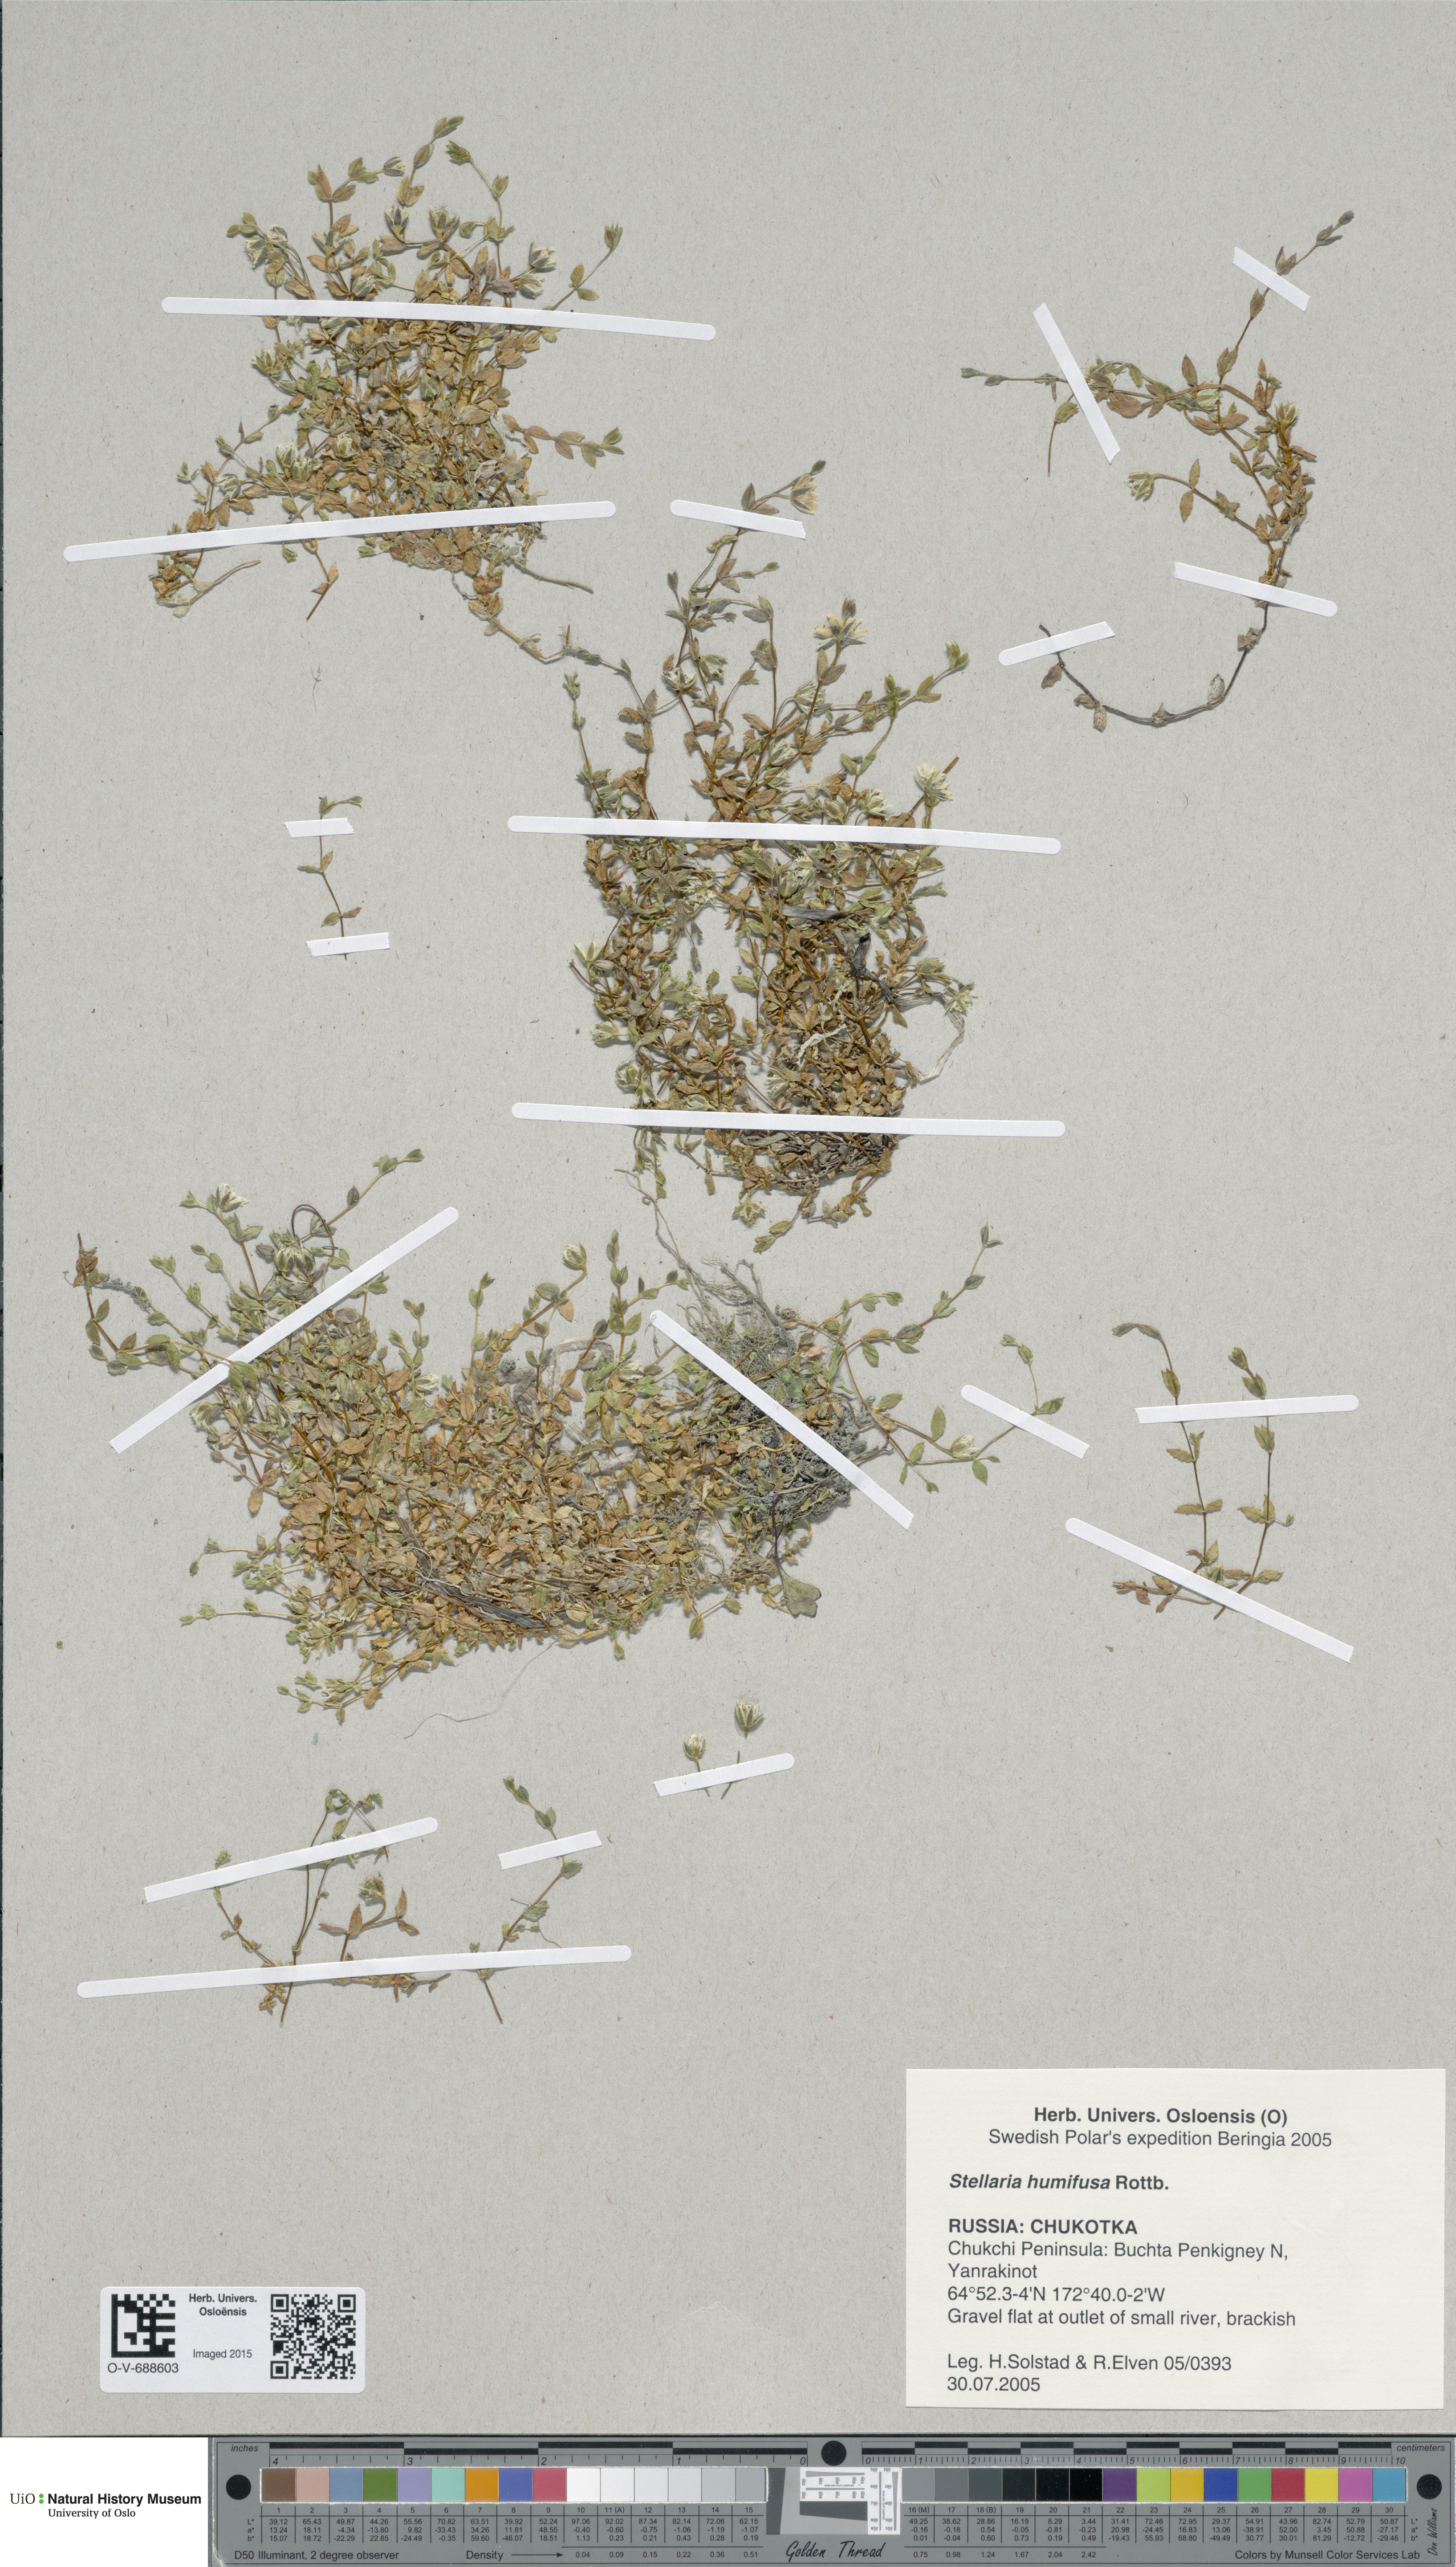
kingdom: Plantae
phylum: Tracheophyta
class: Magnoliopsida
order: Caryophyllales
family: Caryophyllaceae
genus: Stellaria
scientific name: Stellaria humifusa
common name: Creeping starwort
